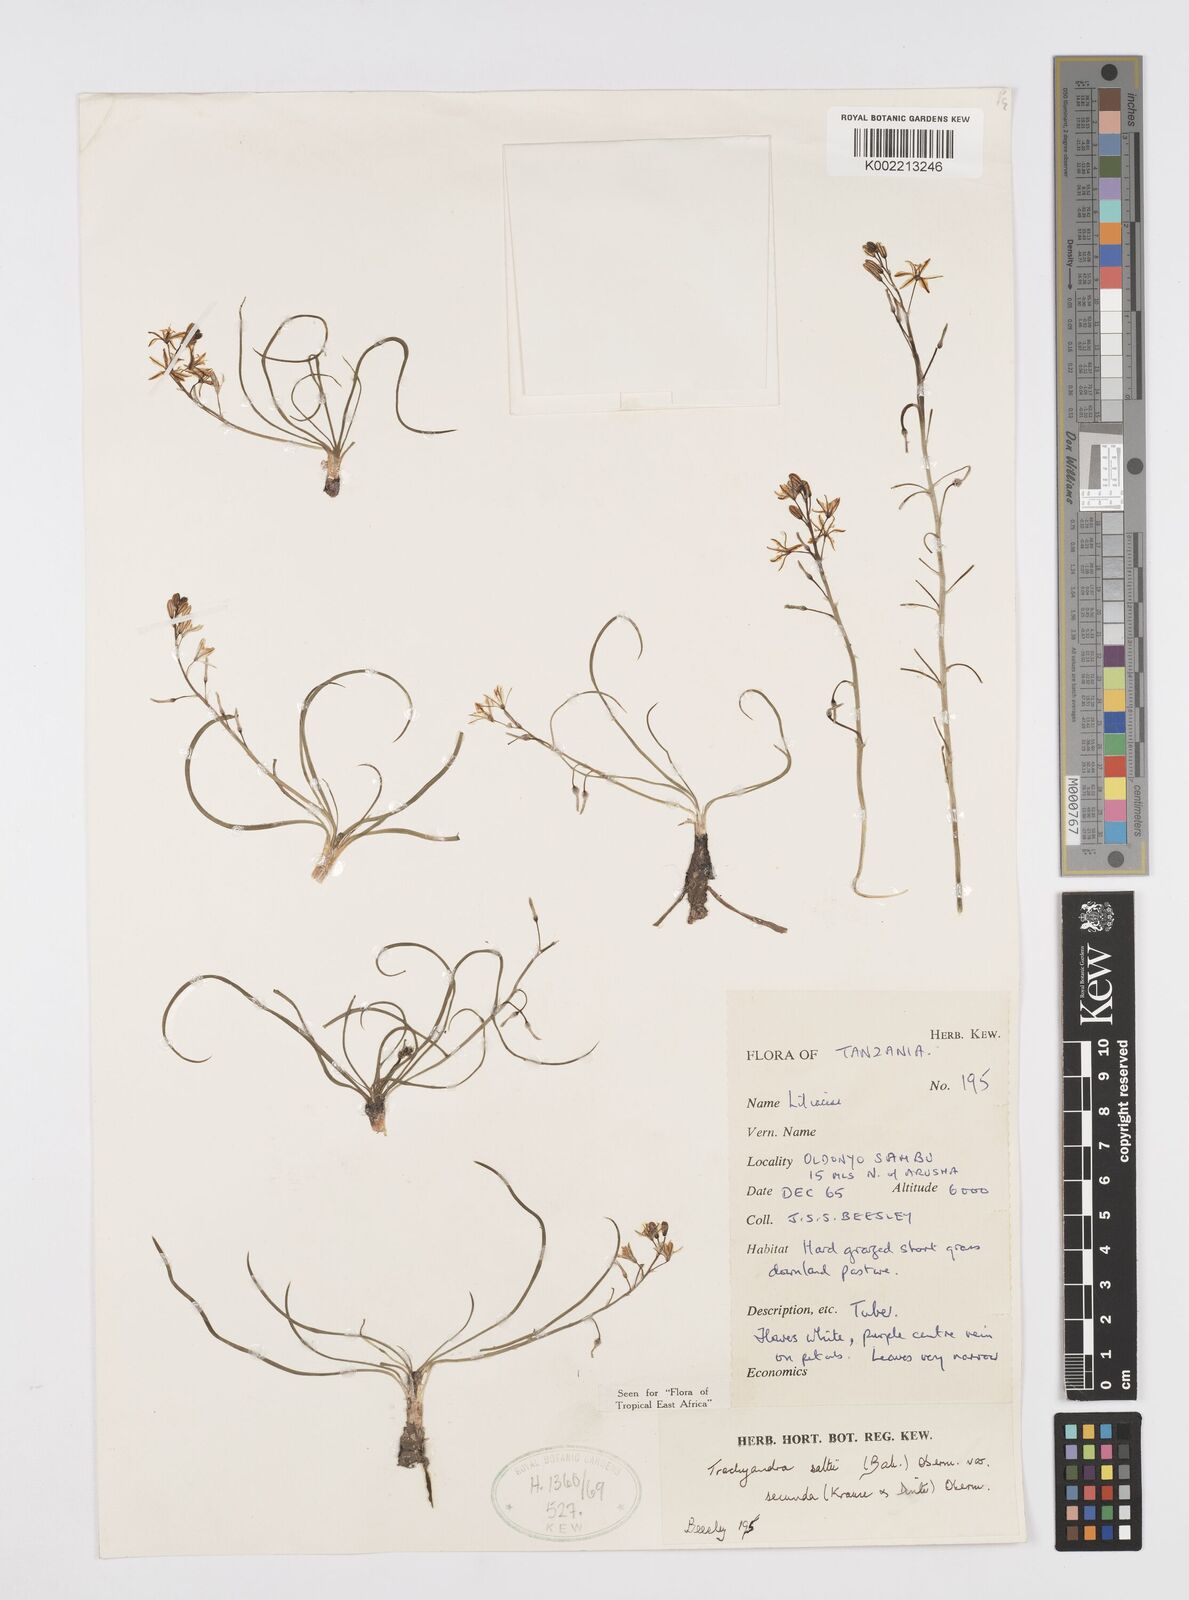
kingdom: Plantae
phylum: Tracheophyta
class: Liliopsida
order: Asparagales
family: Asphodelaceae
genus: Trachyandra
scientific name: Trachyandra saltii
